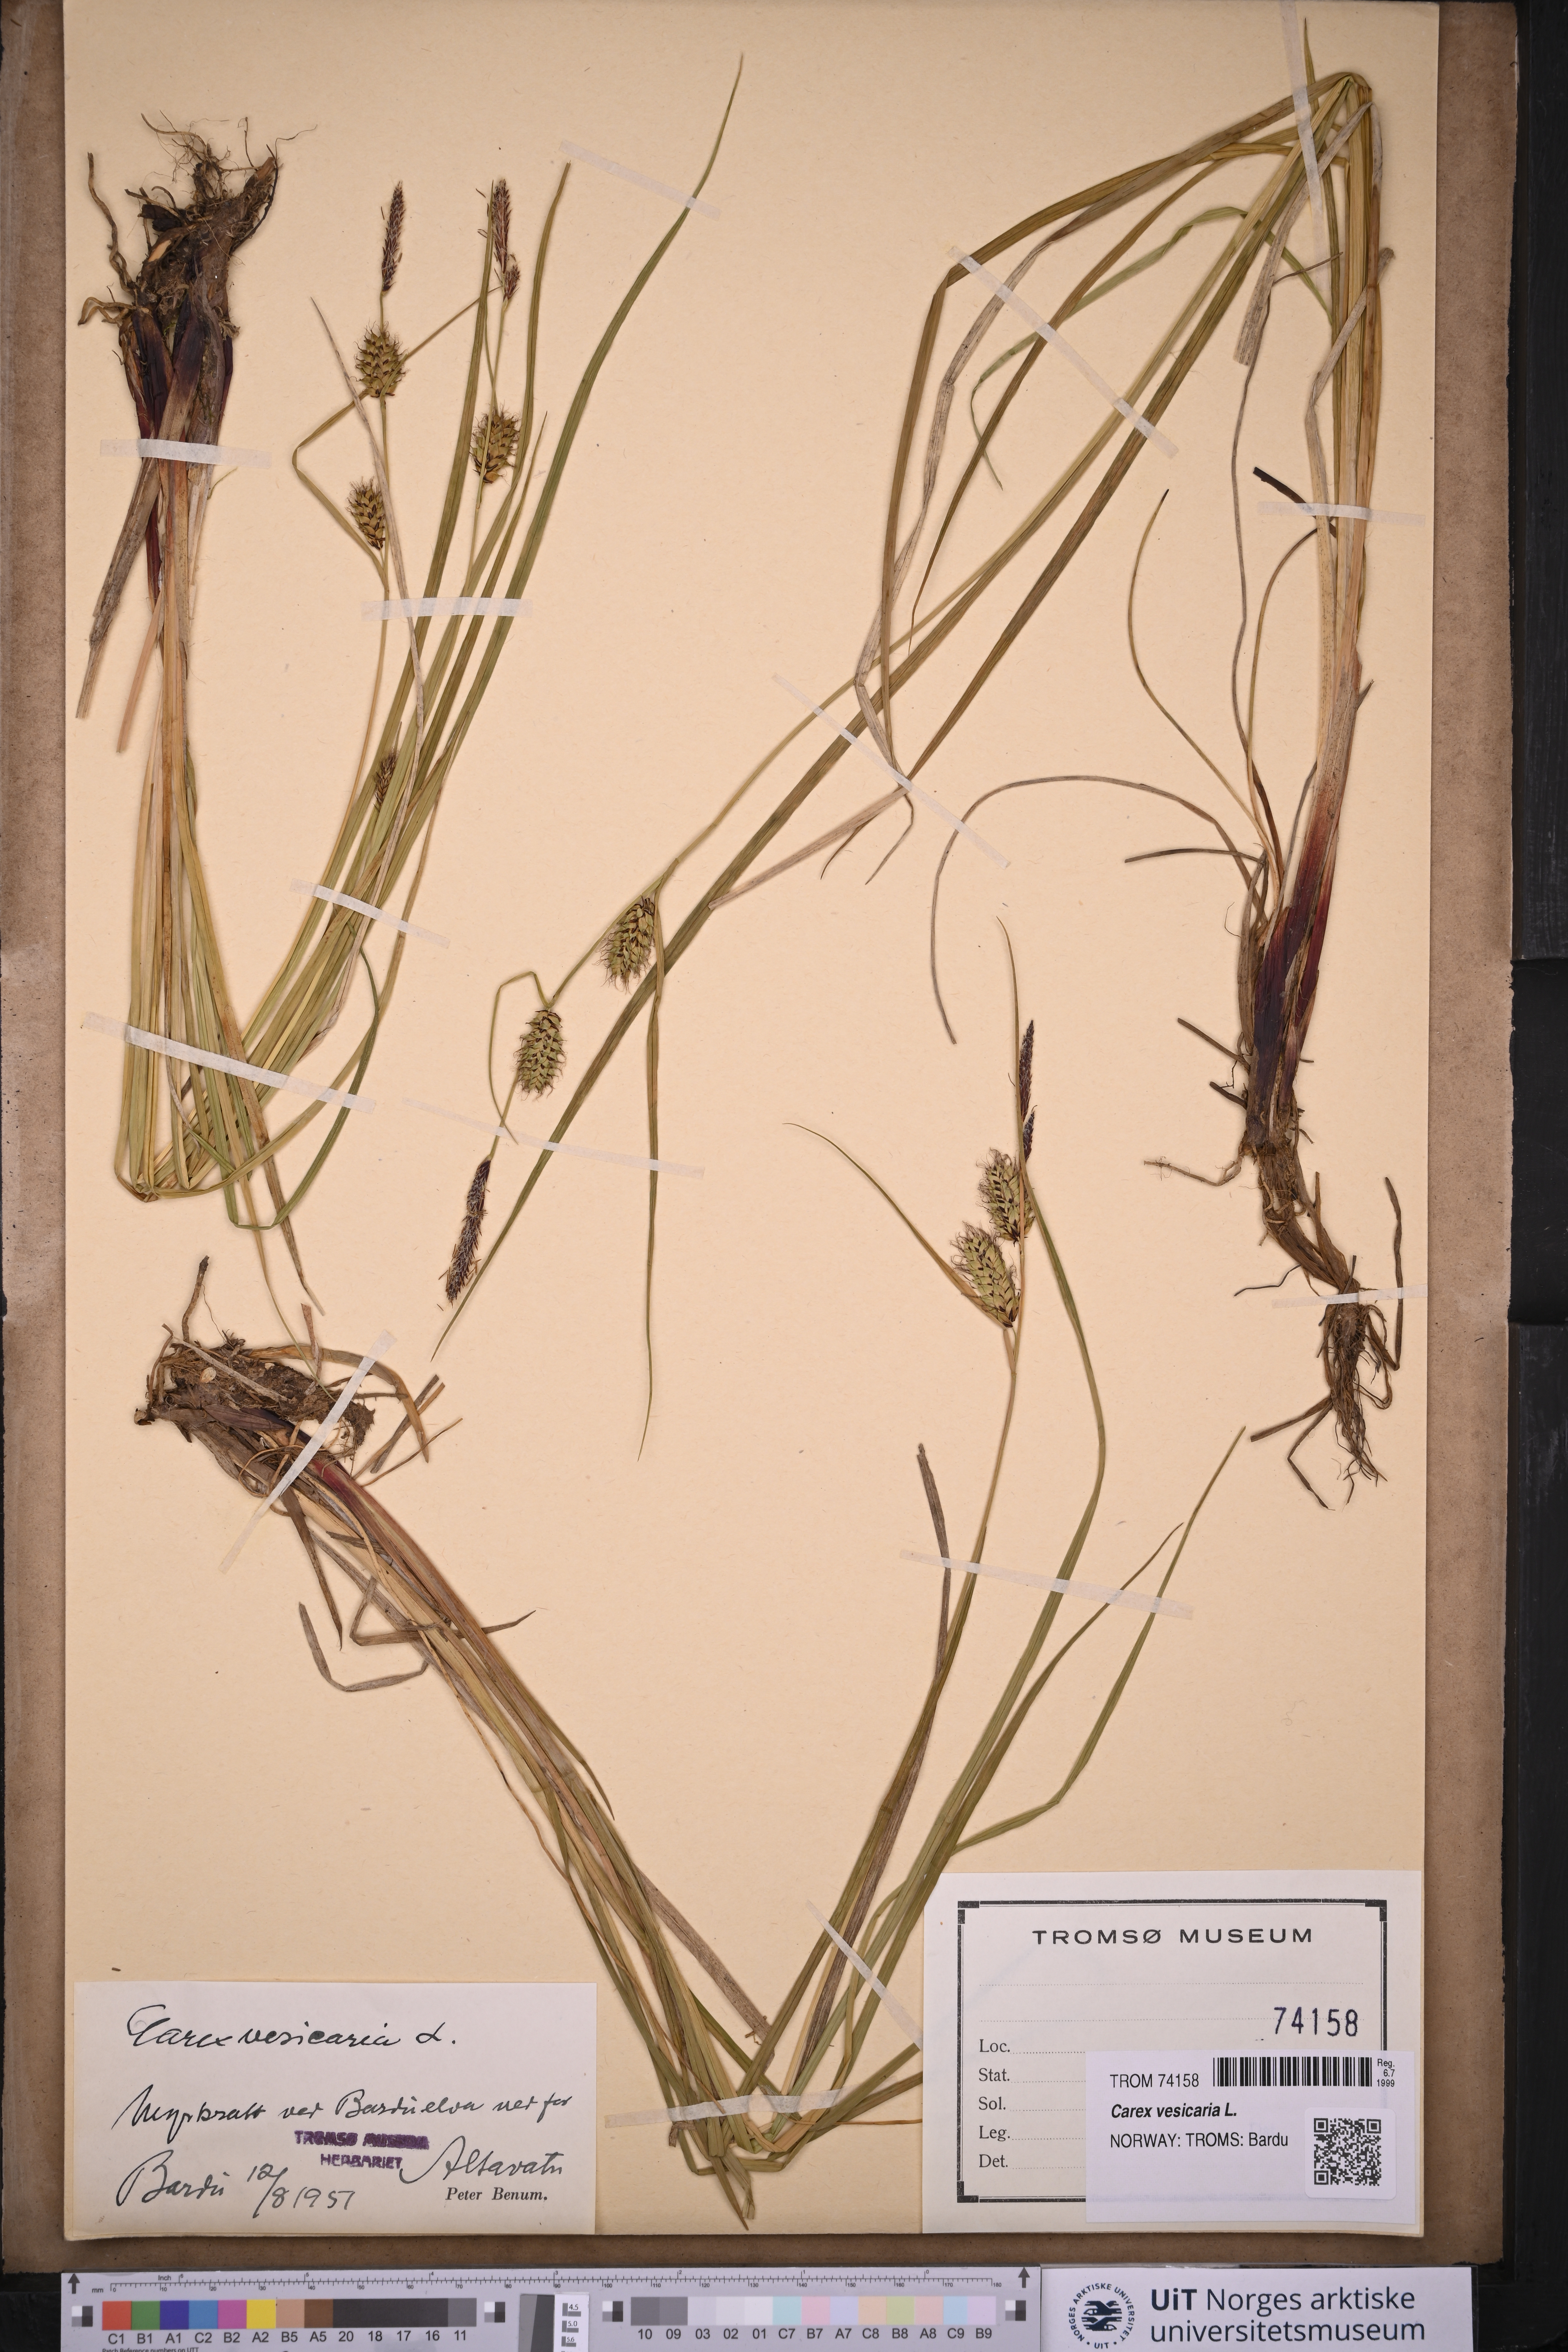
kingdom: Plantae
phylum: Tracheophyta
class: Liliopsida
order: Poales
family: Cyperaceae
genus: Carex
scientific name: Carex vesicaria
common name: Bladder-sedge
